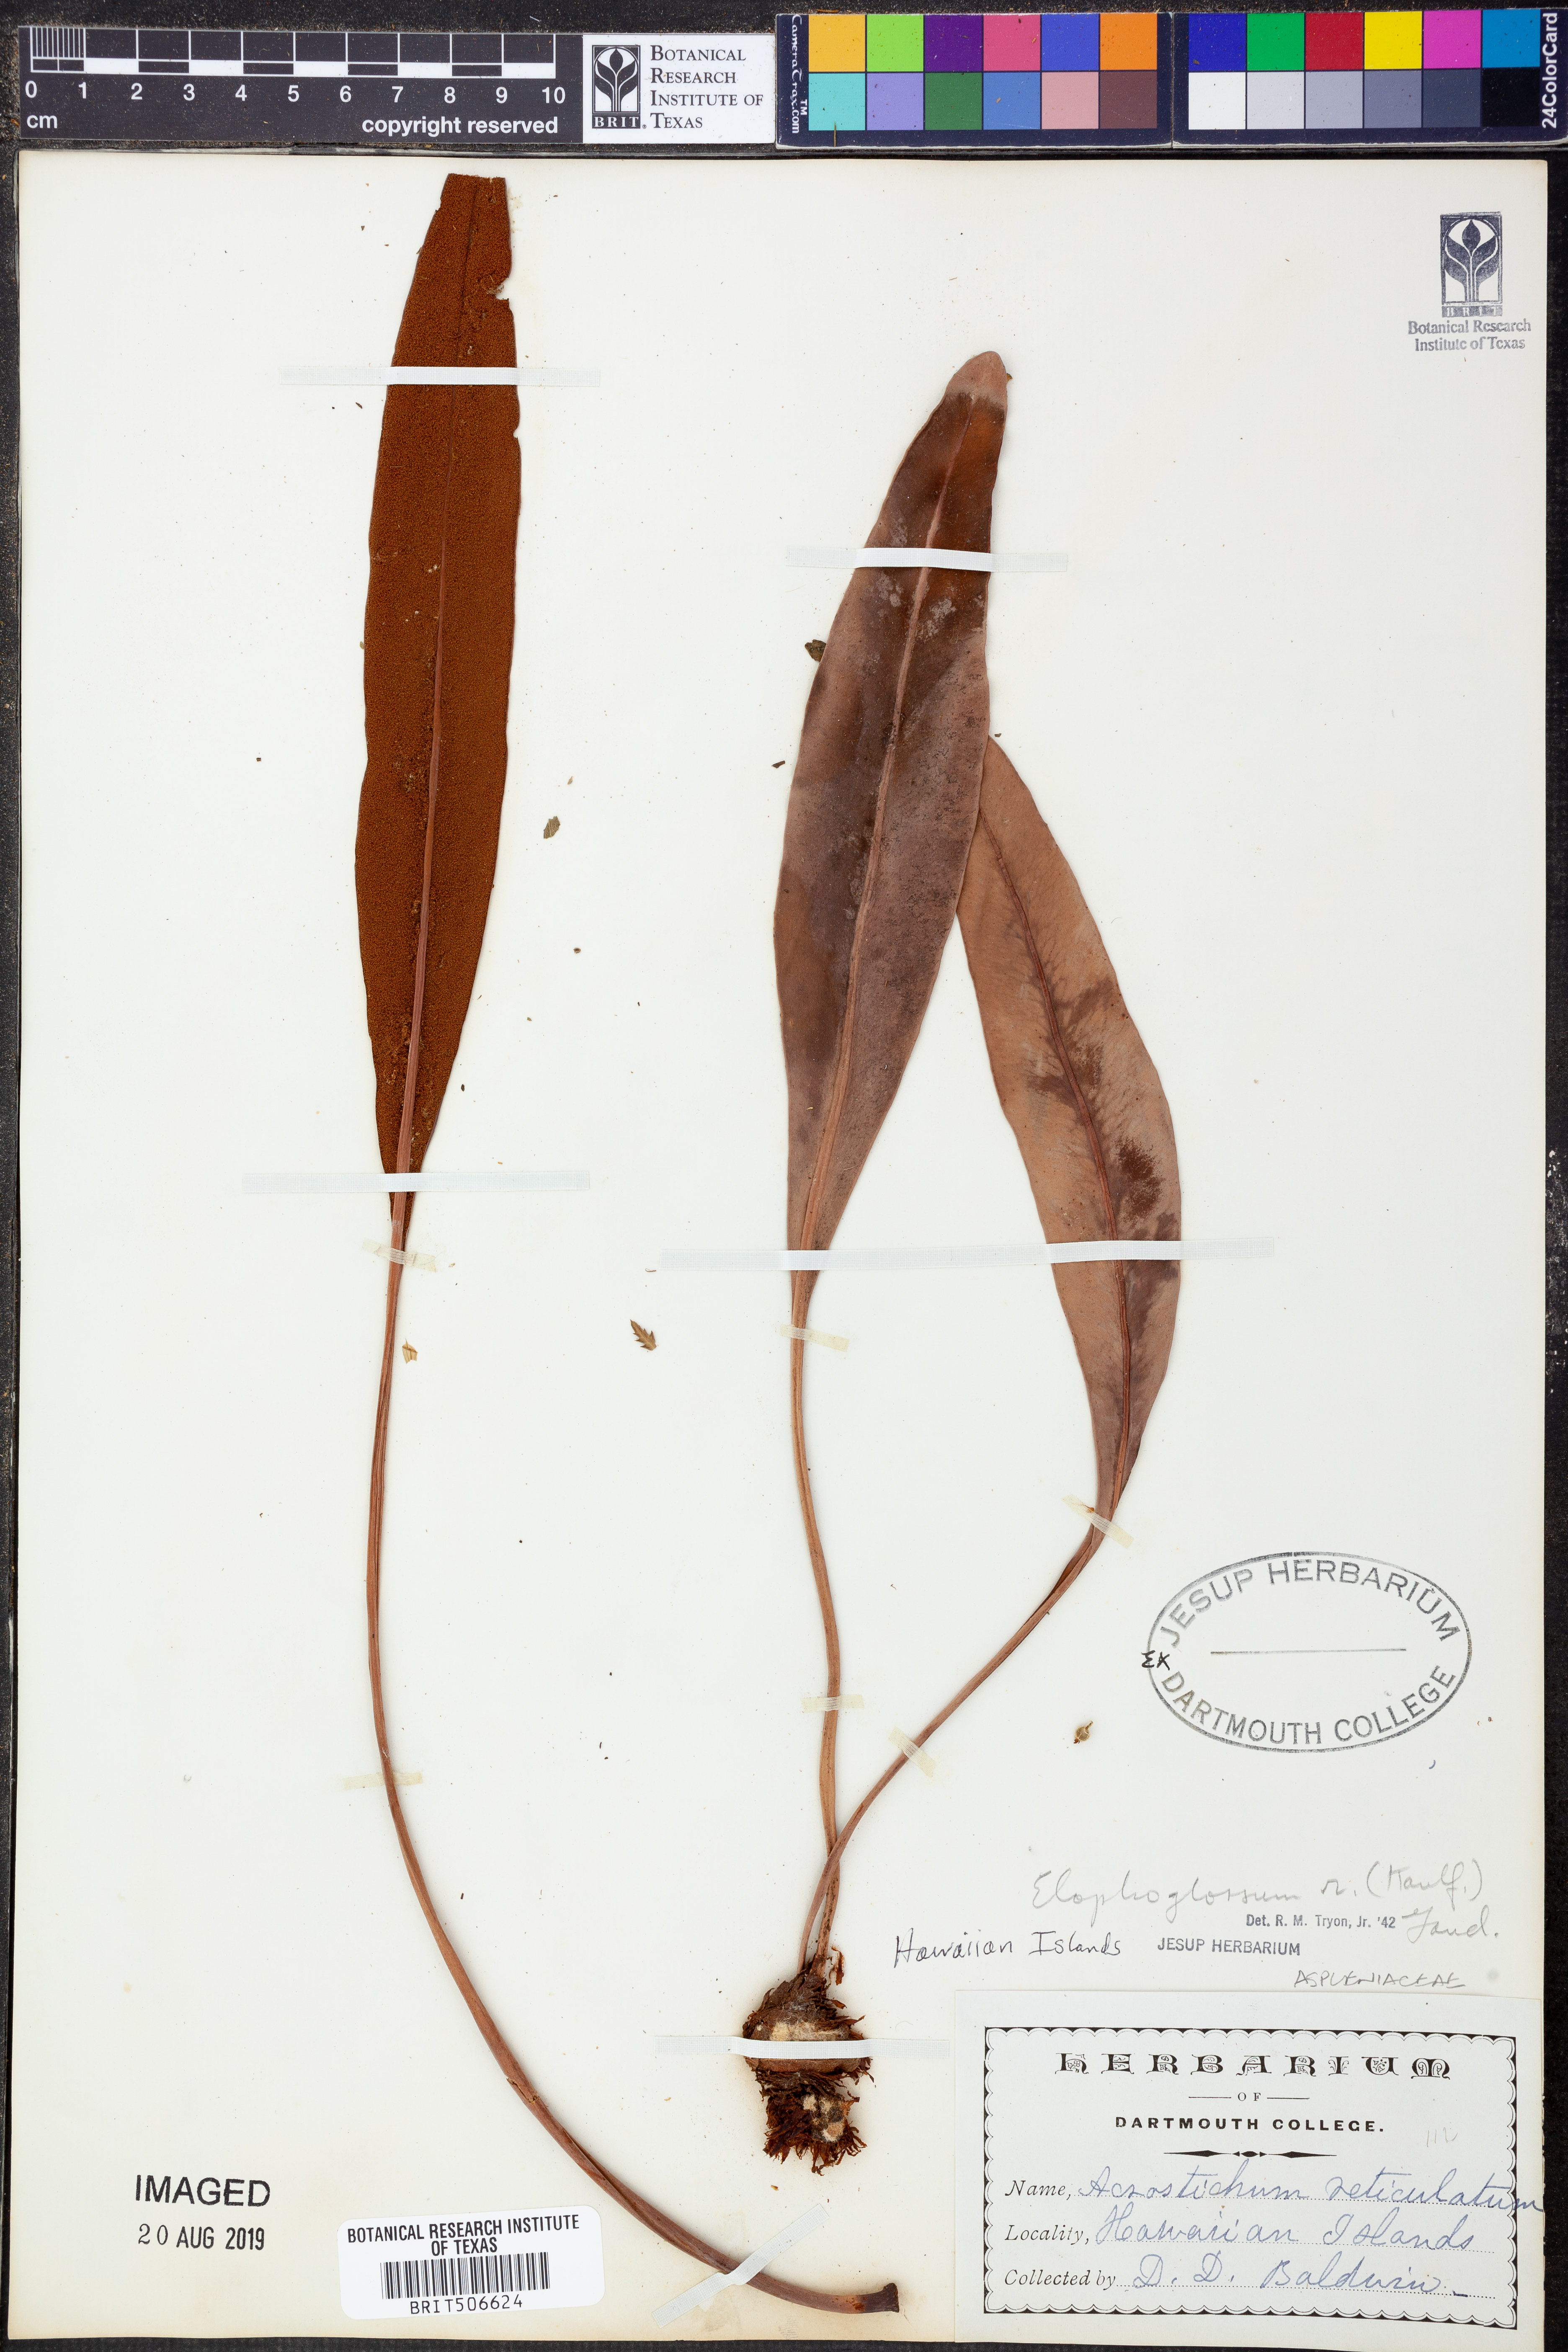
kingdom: Plantae
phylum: Tracheophyta
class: Polypodiopsida
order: Polypodiales
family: Dryopteridaceae
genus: Elaphoglossum
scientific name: Elaphoglossum crassifolium
